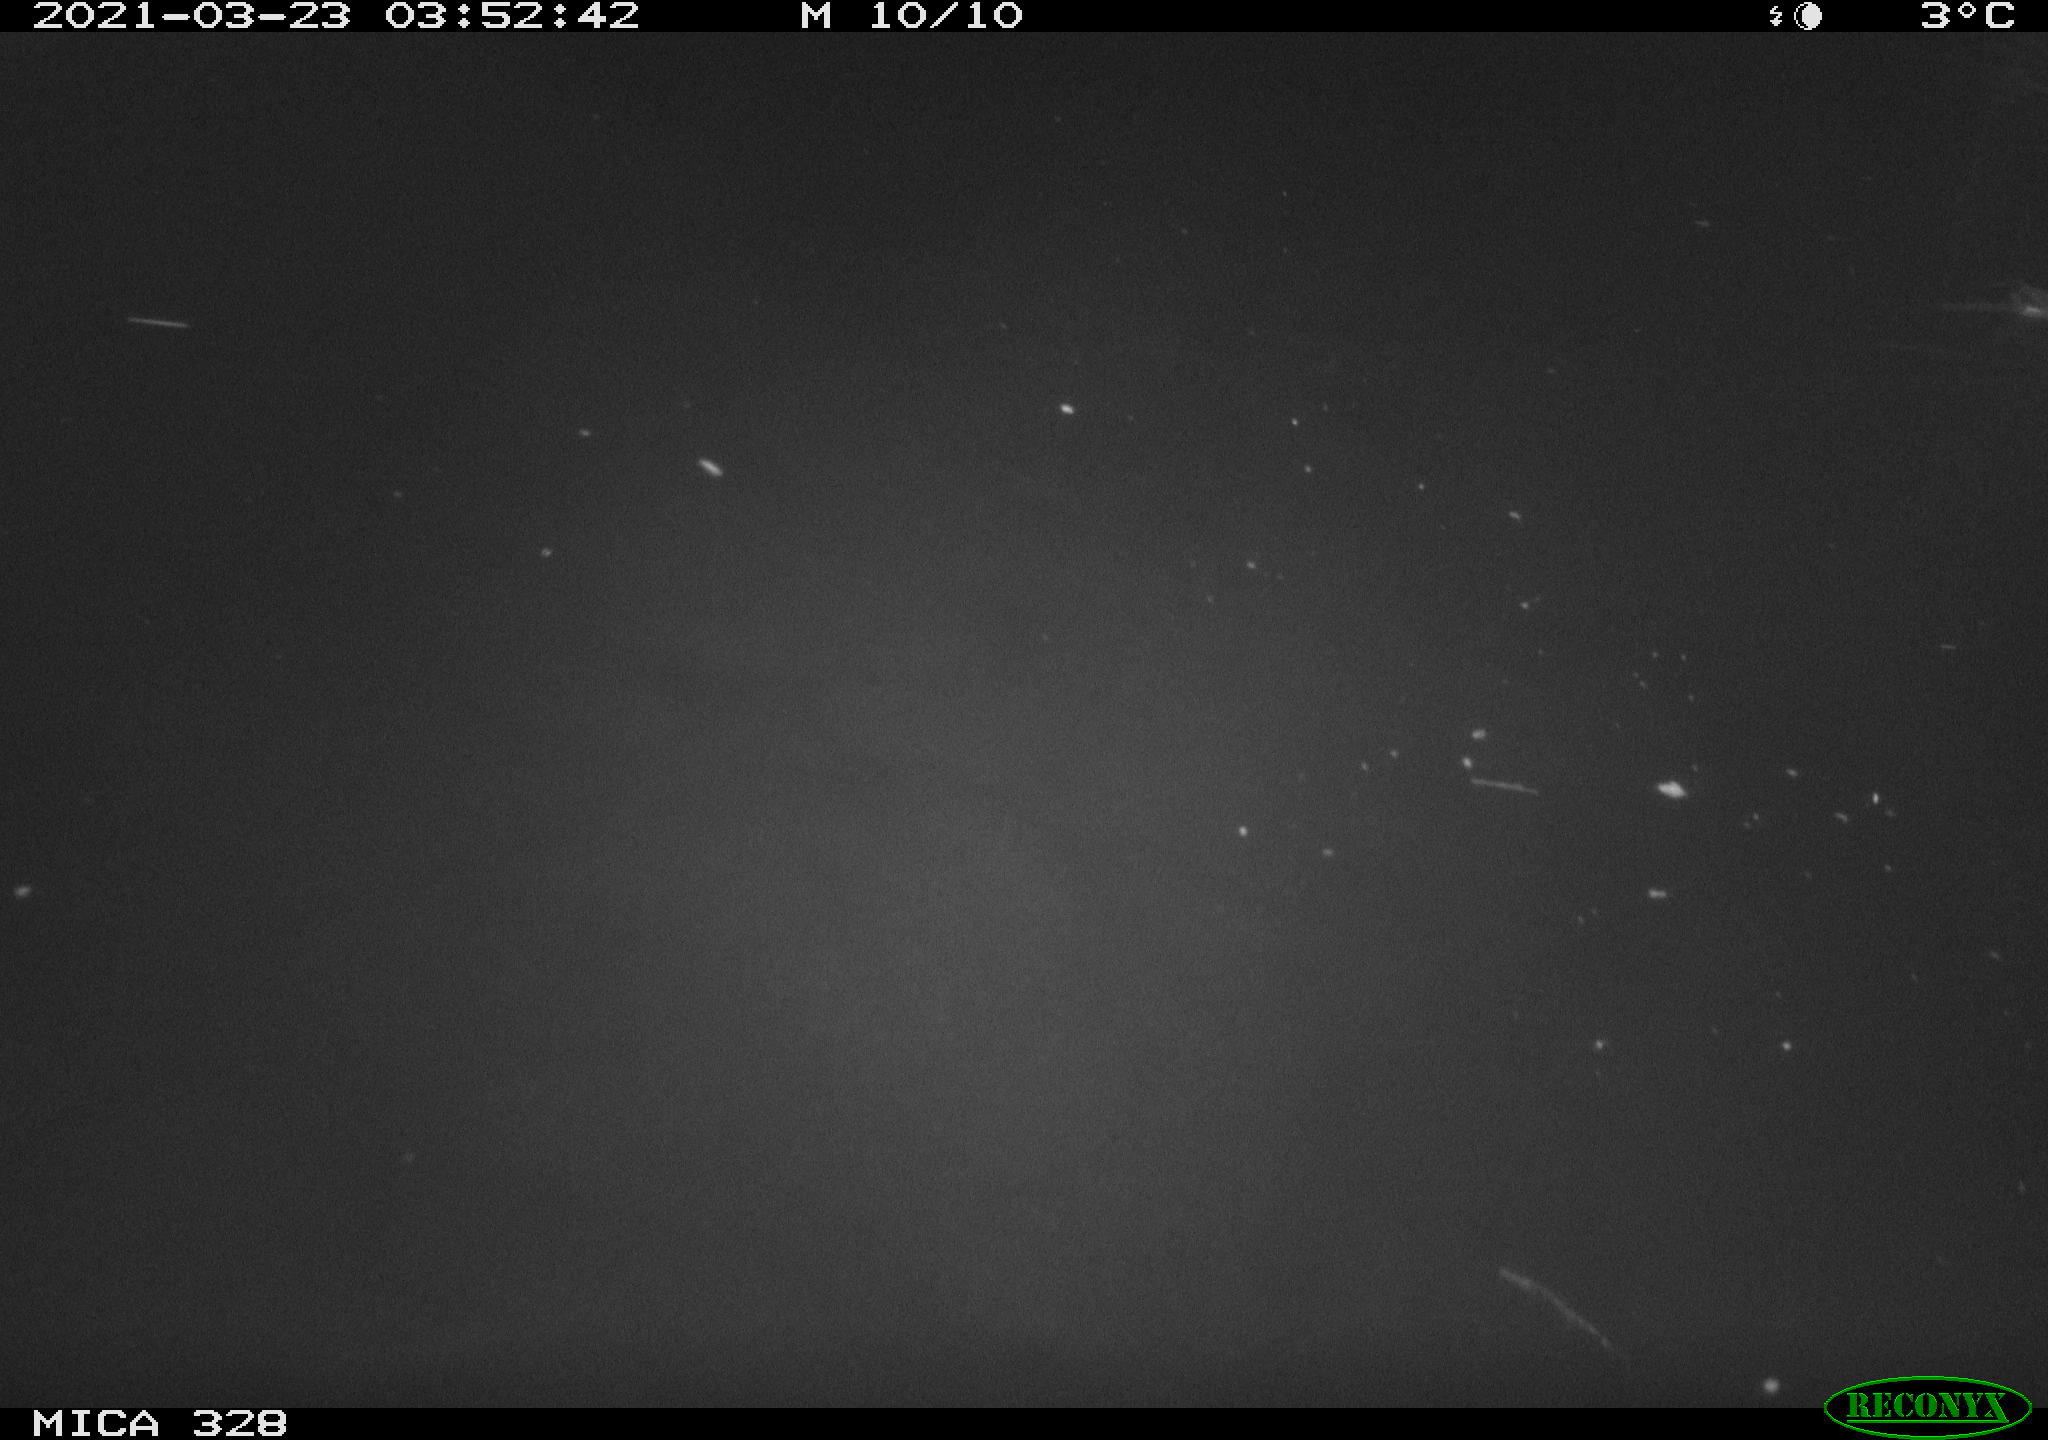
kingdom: Animalia
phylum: Chordata
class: Aves
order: Anseriformes
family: Anatidae
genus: Anas
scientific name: Anas platyrhynchos
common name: Mallard
